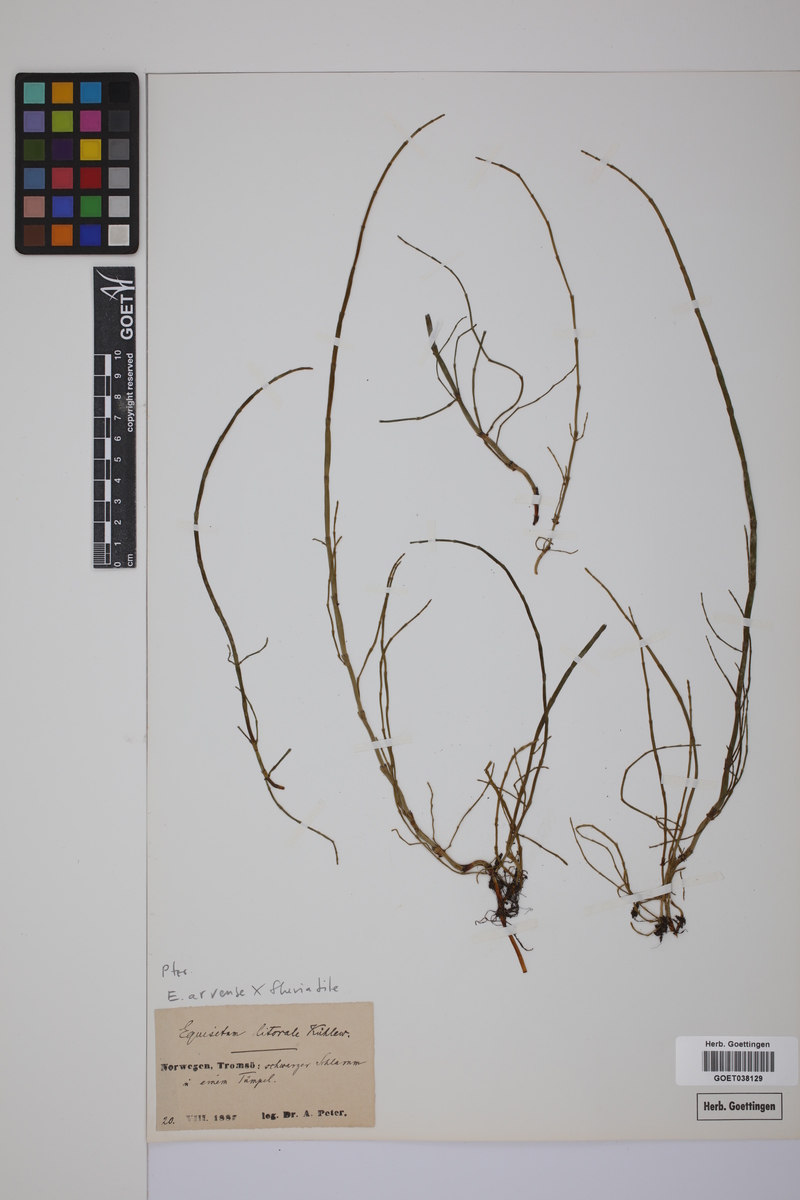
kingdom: Plantae
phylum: Tracheophyta
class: Polypodiopsida
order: Equisetales
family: Equisetaceae
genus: Equisetum
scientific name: Equisetum litorale
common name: Littoral horsetail
